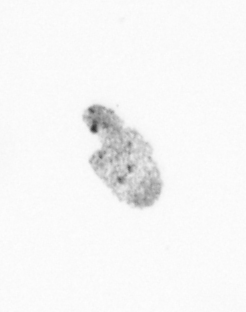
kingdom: Animalia
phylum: Arthropoda
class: Copepoda
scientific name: Copepoda
